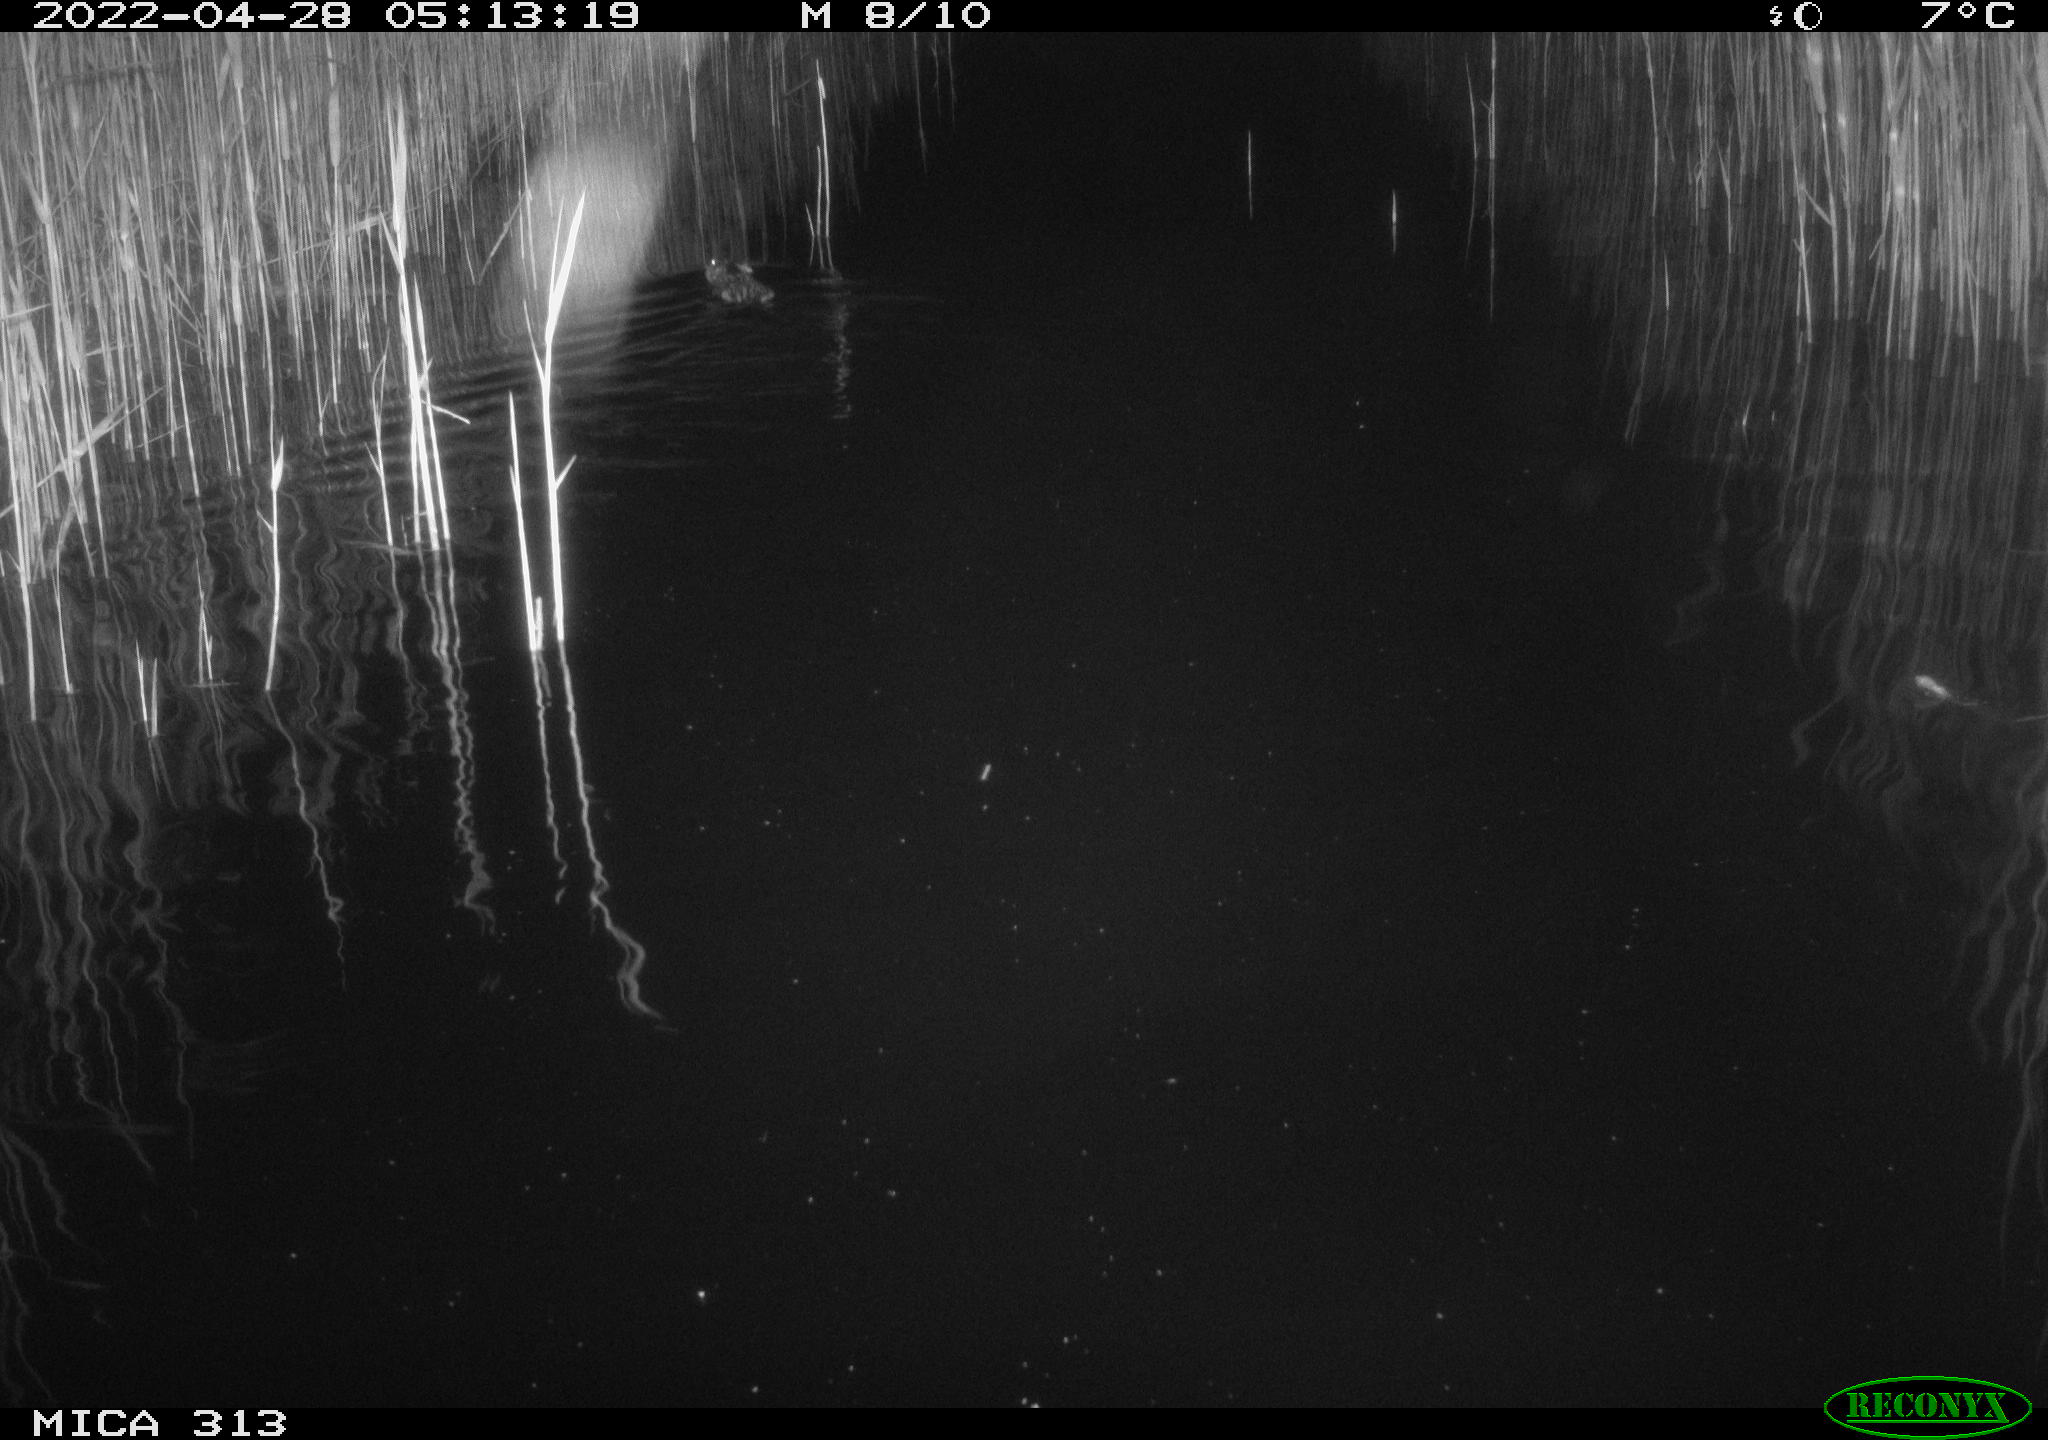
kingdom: Animalia
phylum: Chordata
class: Mammalia
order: Rodentia
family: Cricetidae
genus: Ondatra
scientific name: Ondatra zibethicus
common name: Muskrat
